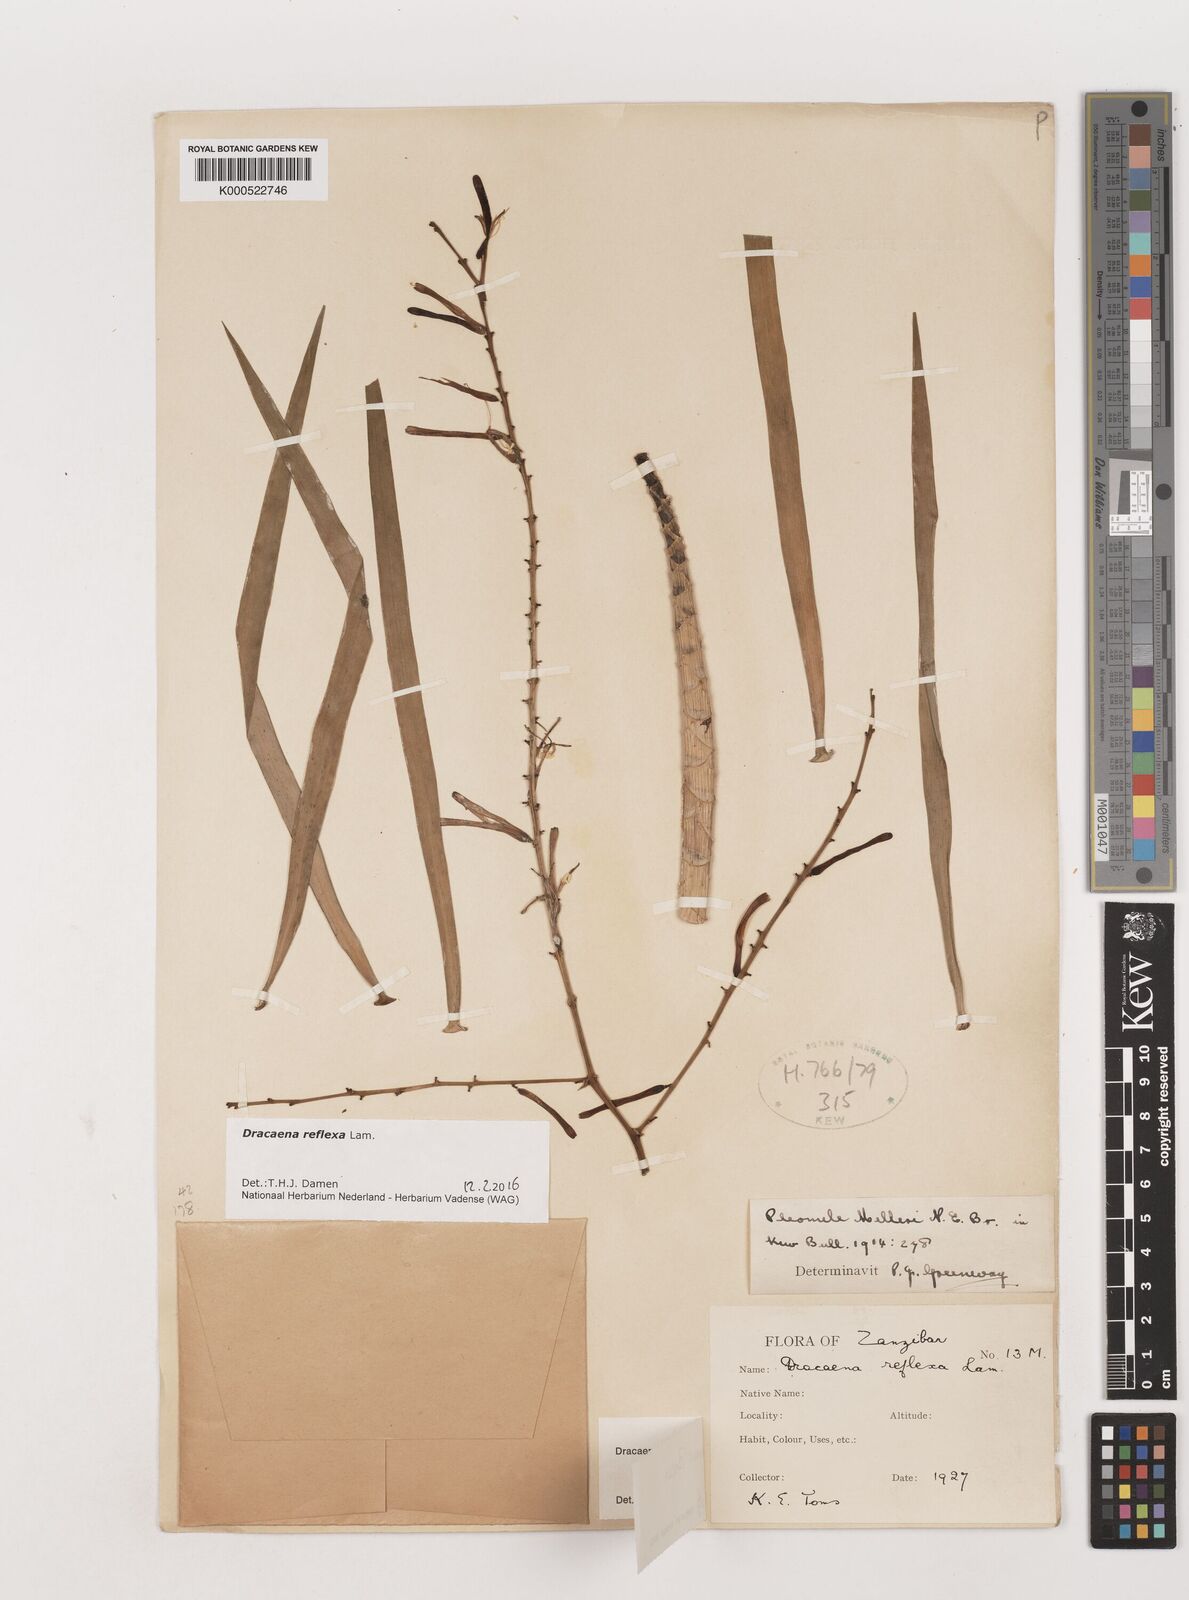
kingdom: Plantae
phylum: Tracheophyta
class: Liliopsida
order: Asparagales
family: Asparagaceae
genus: Dracaena
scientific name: Dracaena reflexa
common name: Song-of-india
